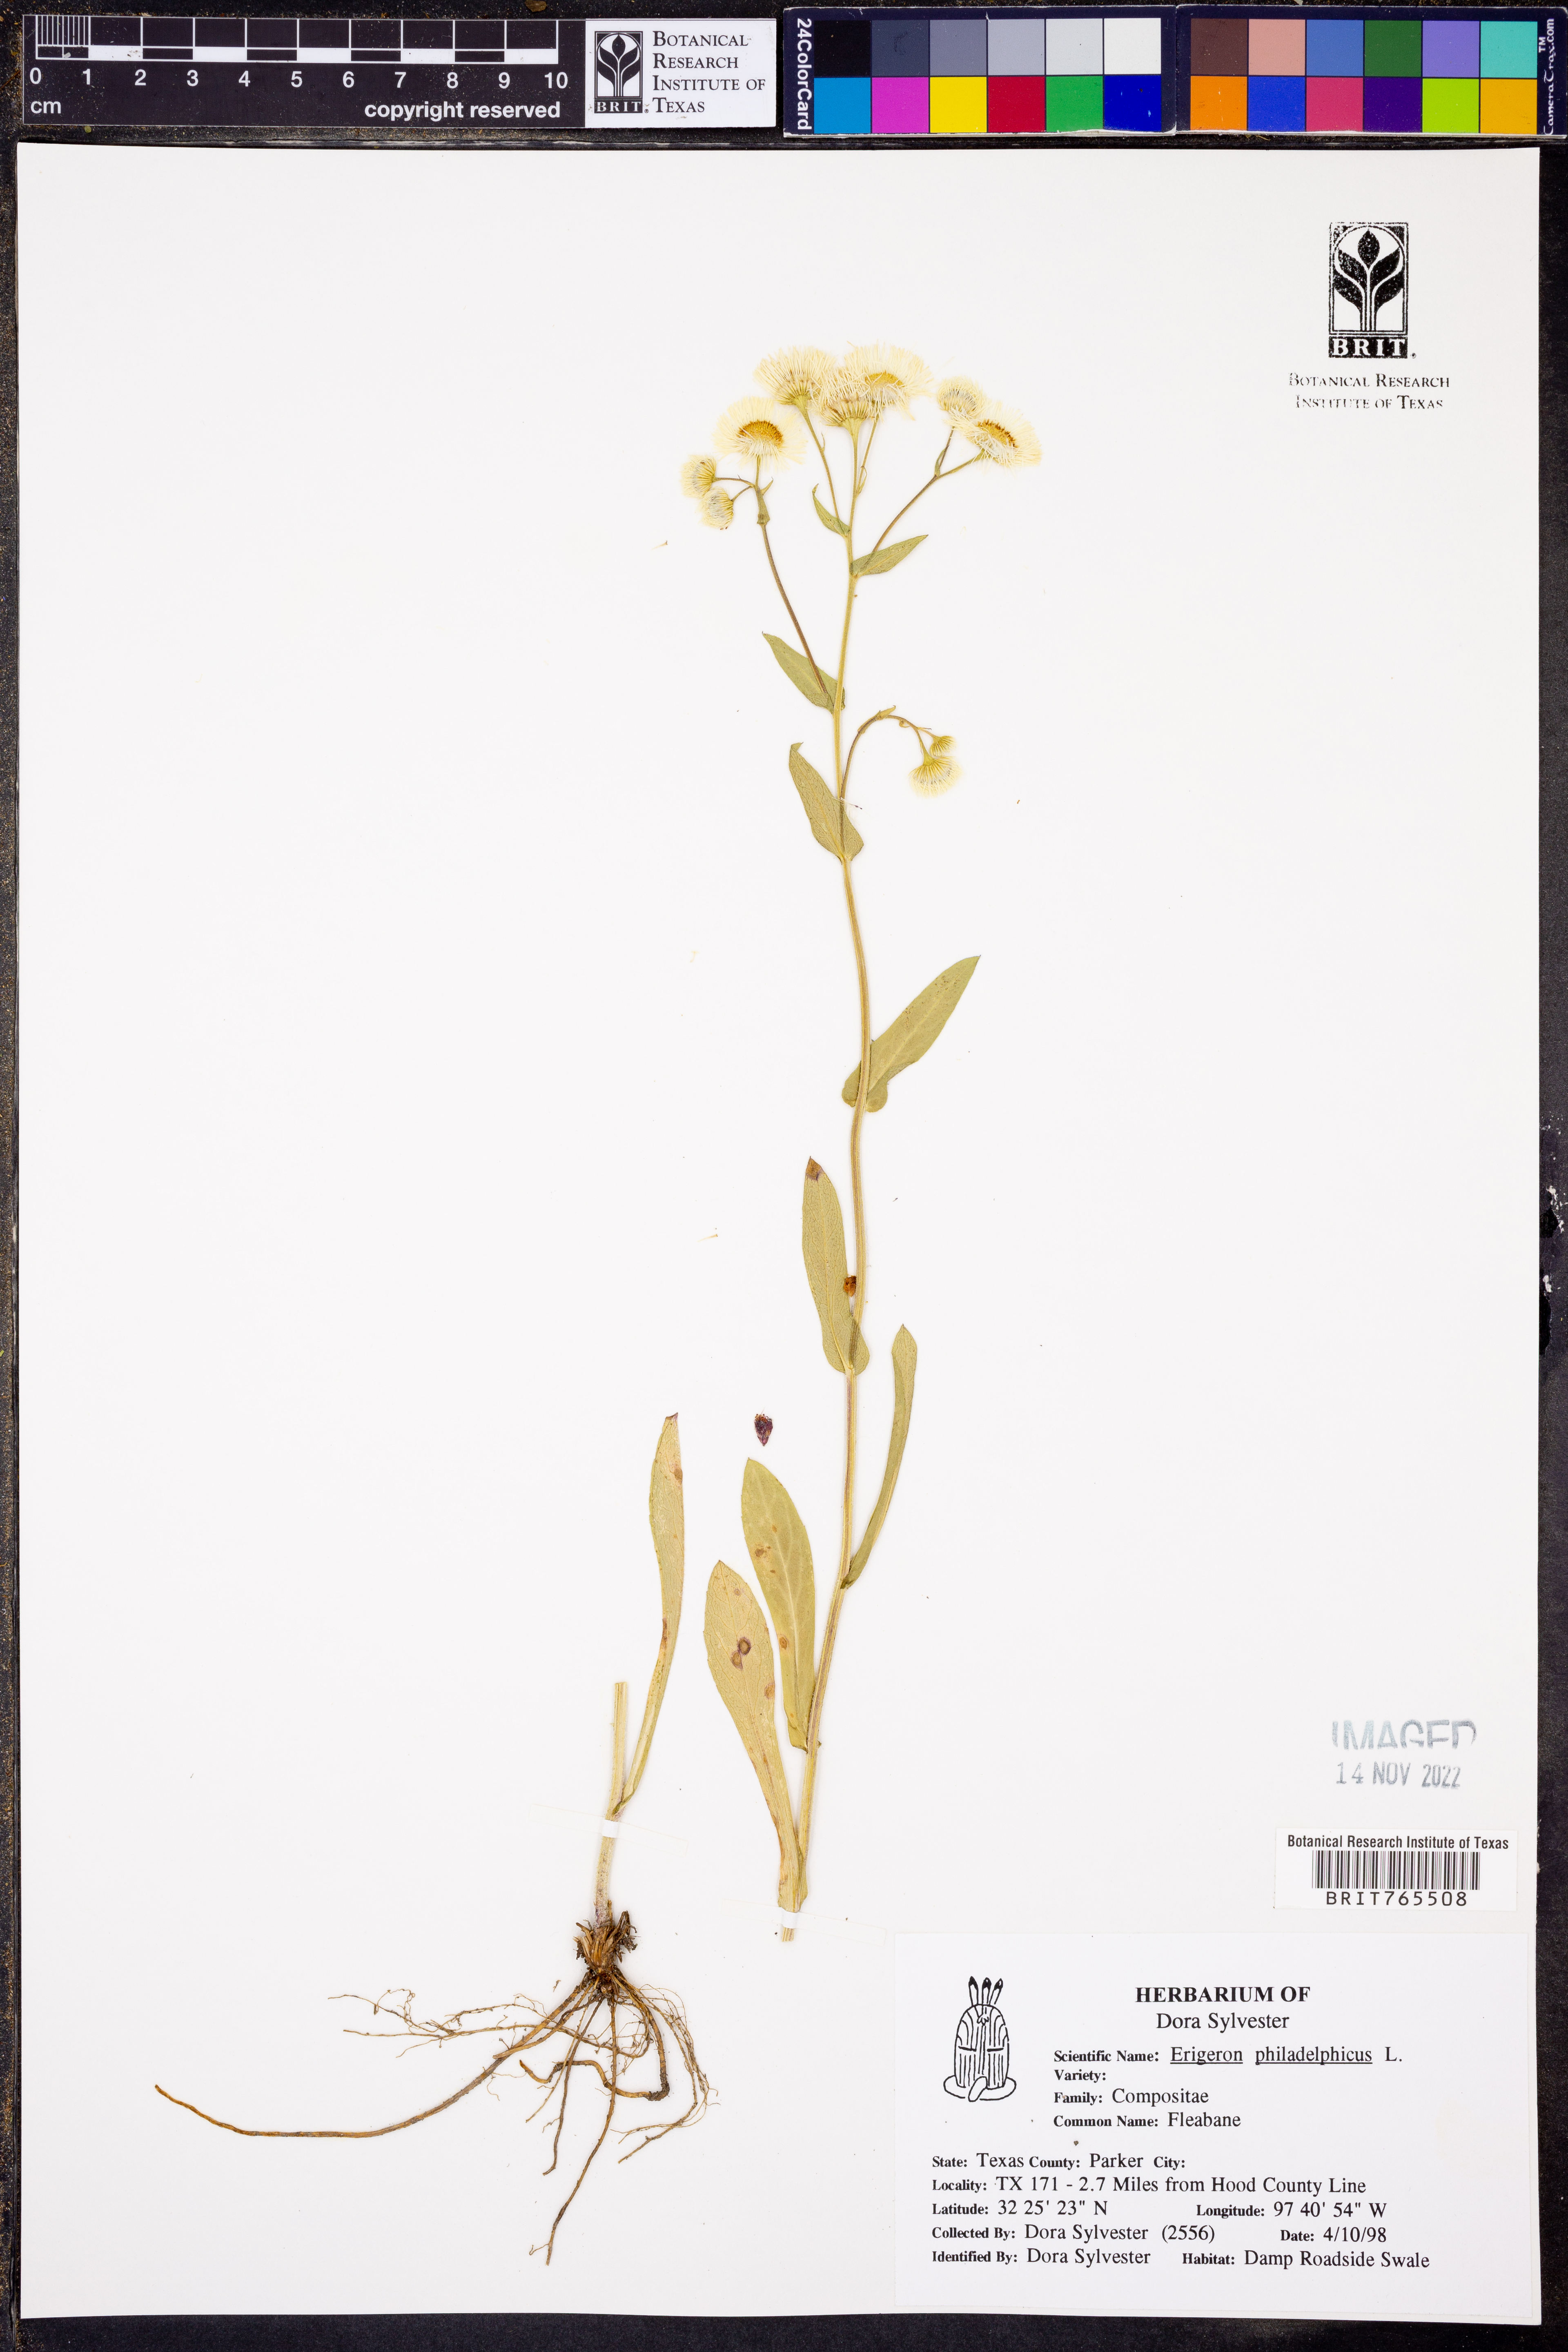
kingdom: Plantae
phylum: Tracheophyta
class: Magnoliopsida
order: Asterales
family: Asteraceae
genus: Erigeron
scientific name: Erigeron philadelphicus
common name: Robin's-plantain
